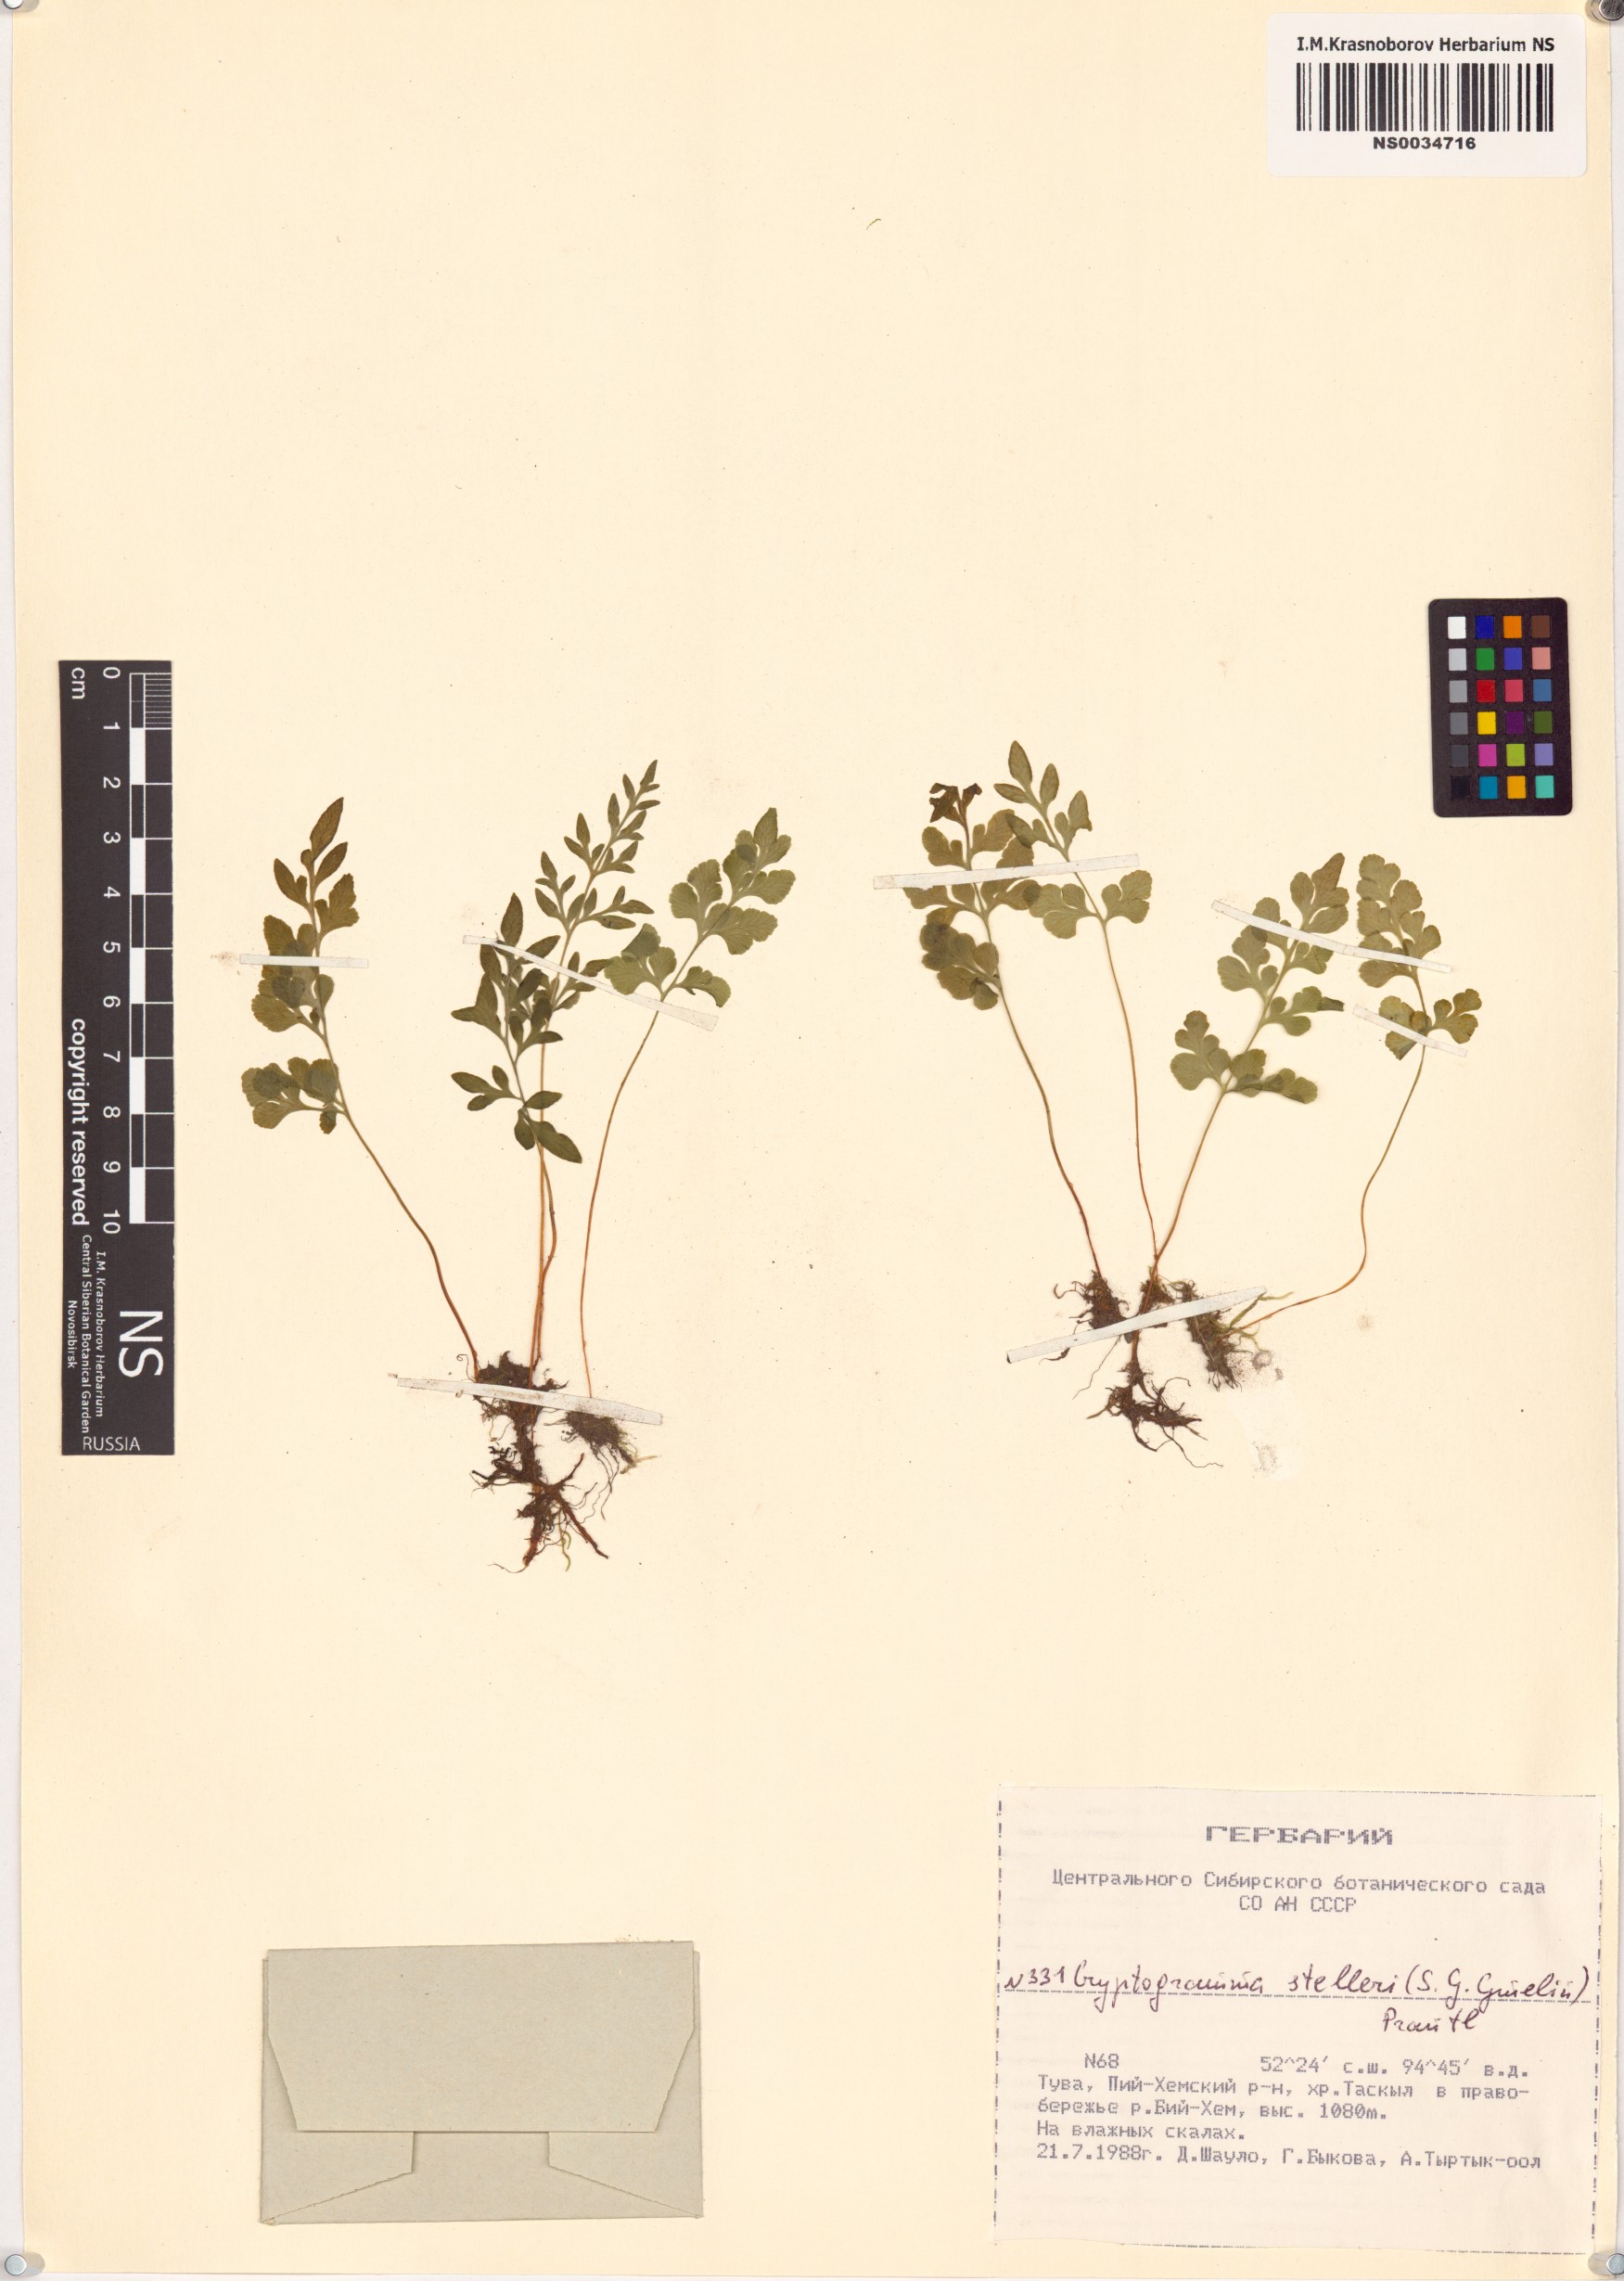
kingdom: Plantae
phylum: Tracheophyta
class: Polypodiopsida
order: Polypodiales
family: Pteridaceae
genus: Cryptogramma
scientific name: Cryptogramma stelleri
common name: Cliff-brake
